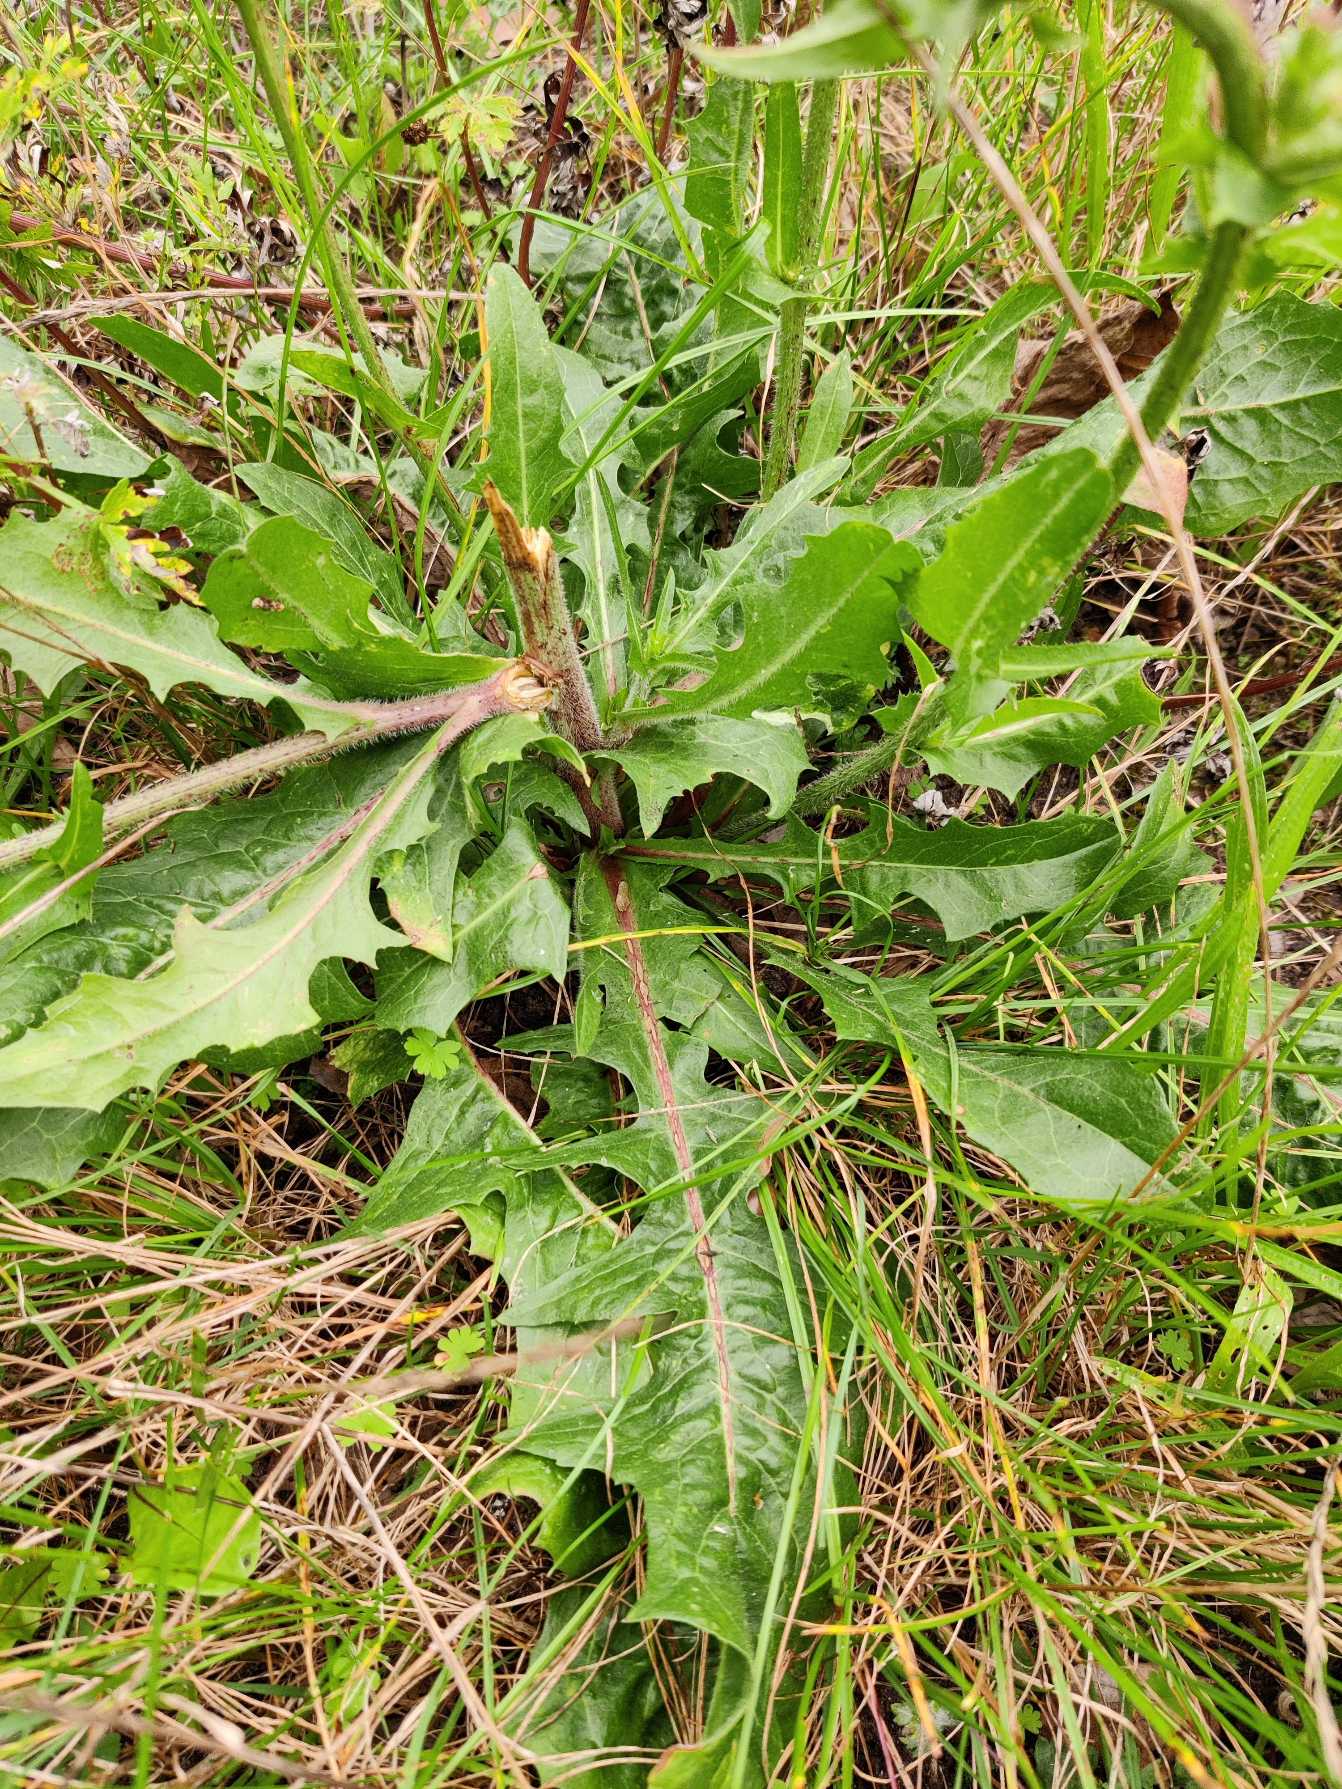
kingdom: Plantae
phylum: Tracheophyta
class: Magnoliopsida
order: Asterales
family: Asteraceae
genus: Cichorium
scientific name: Cichorium intybus
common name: Cikorie
